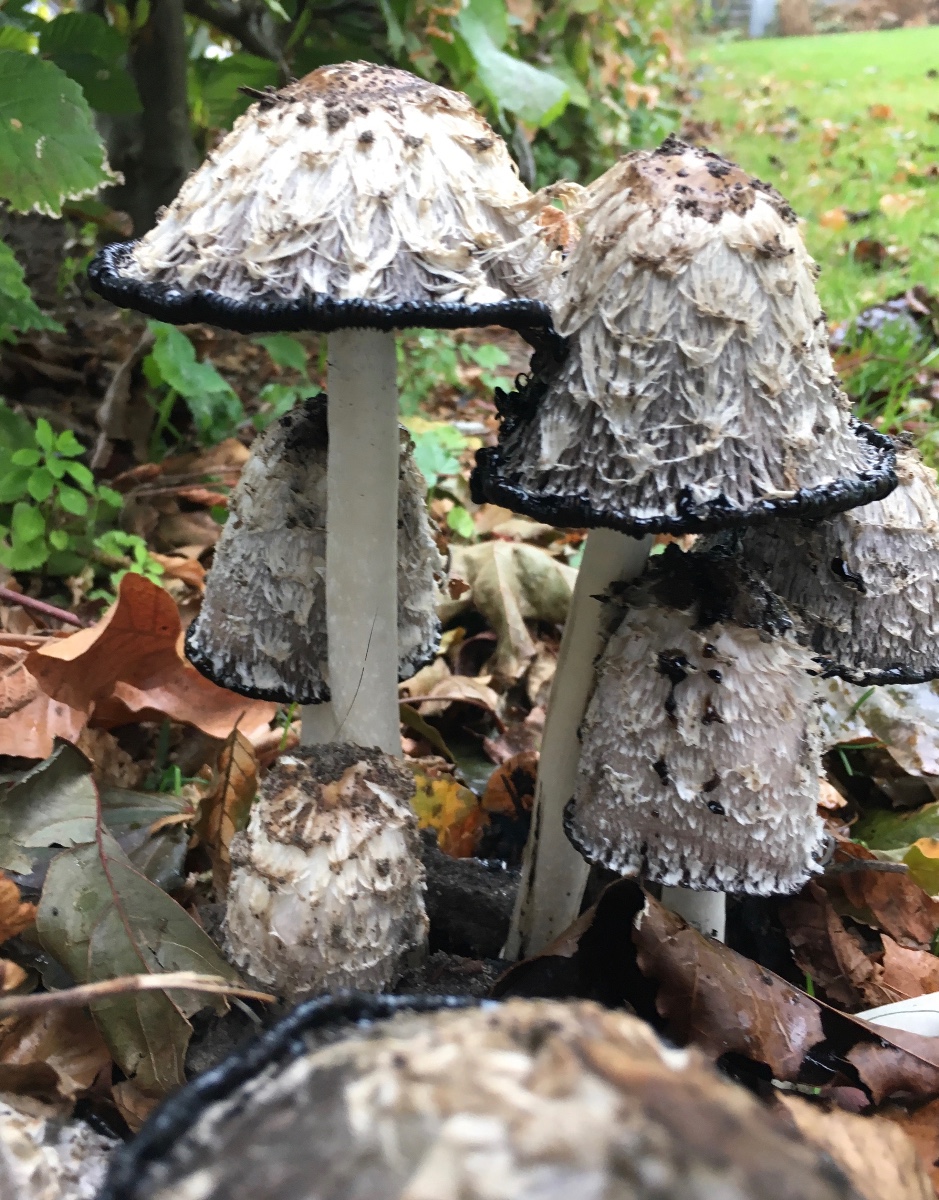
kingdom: Fungi
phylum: Basidiomycota
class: Agaricomycetes
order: Agaricales
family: Agaricaceae
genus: Coprinus
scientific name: Coprinus comatus
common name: stor parykhat
